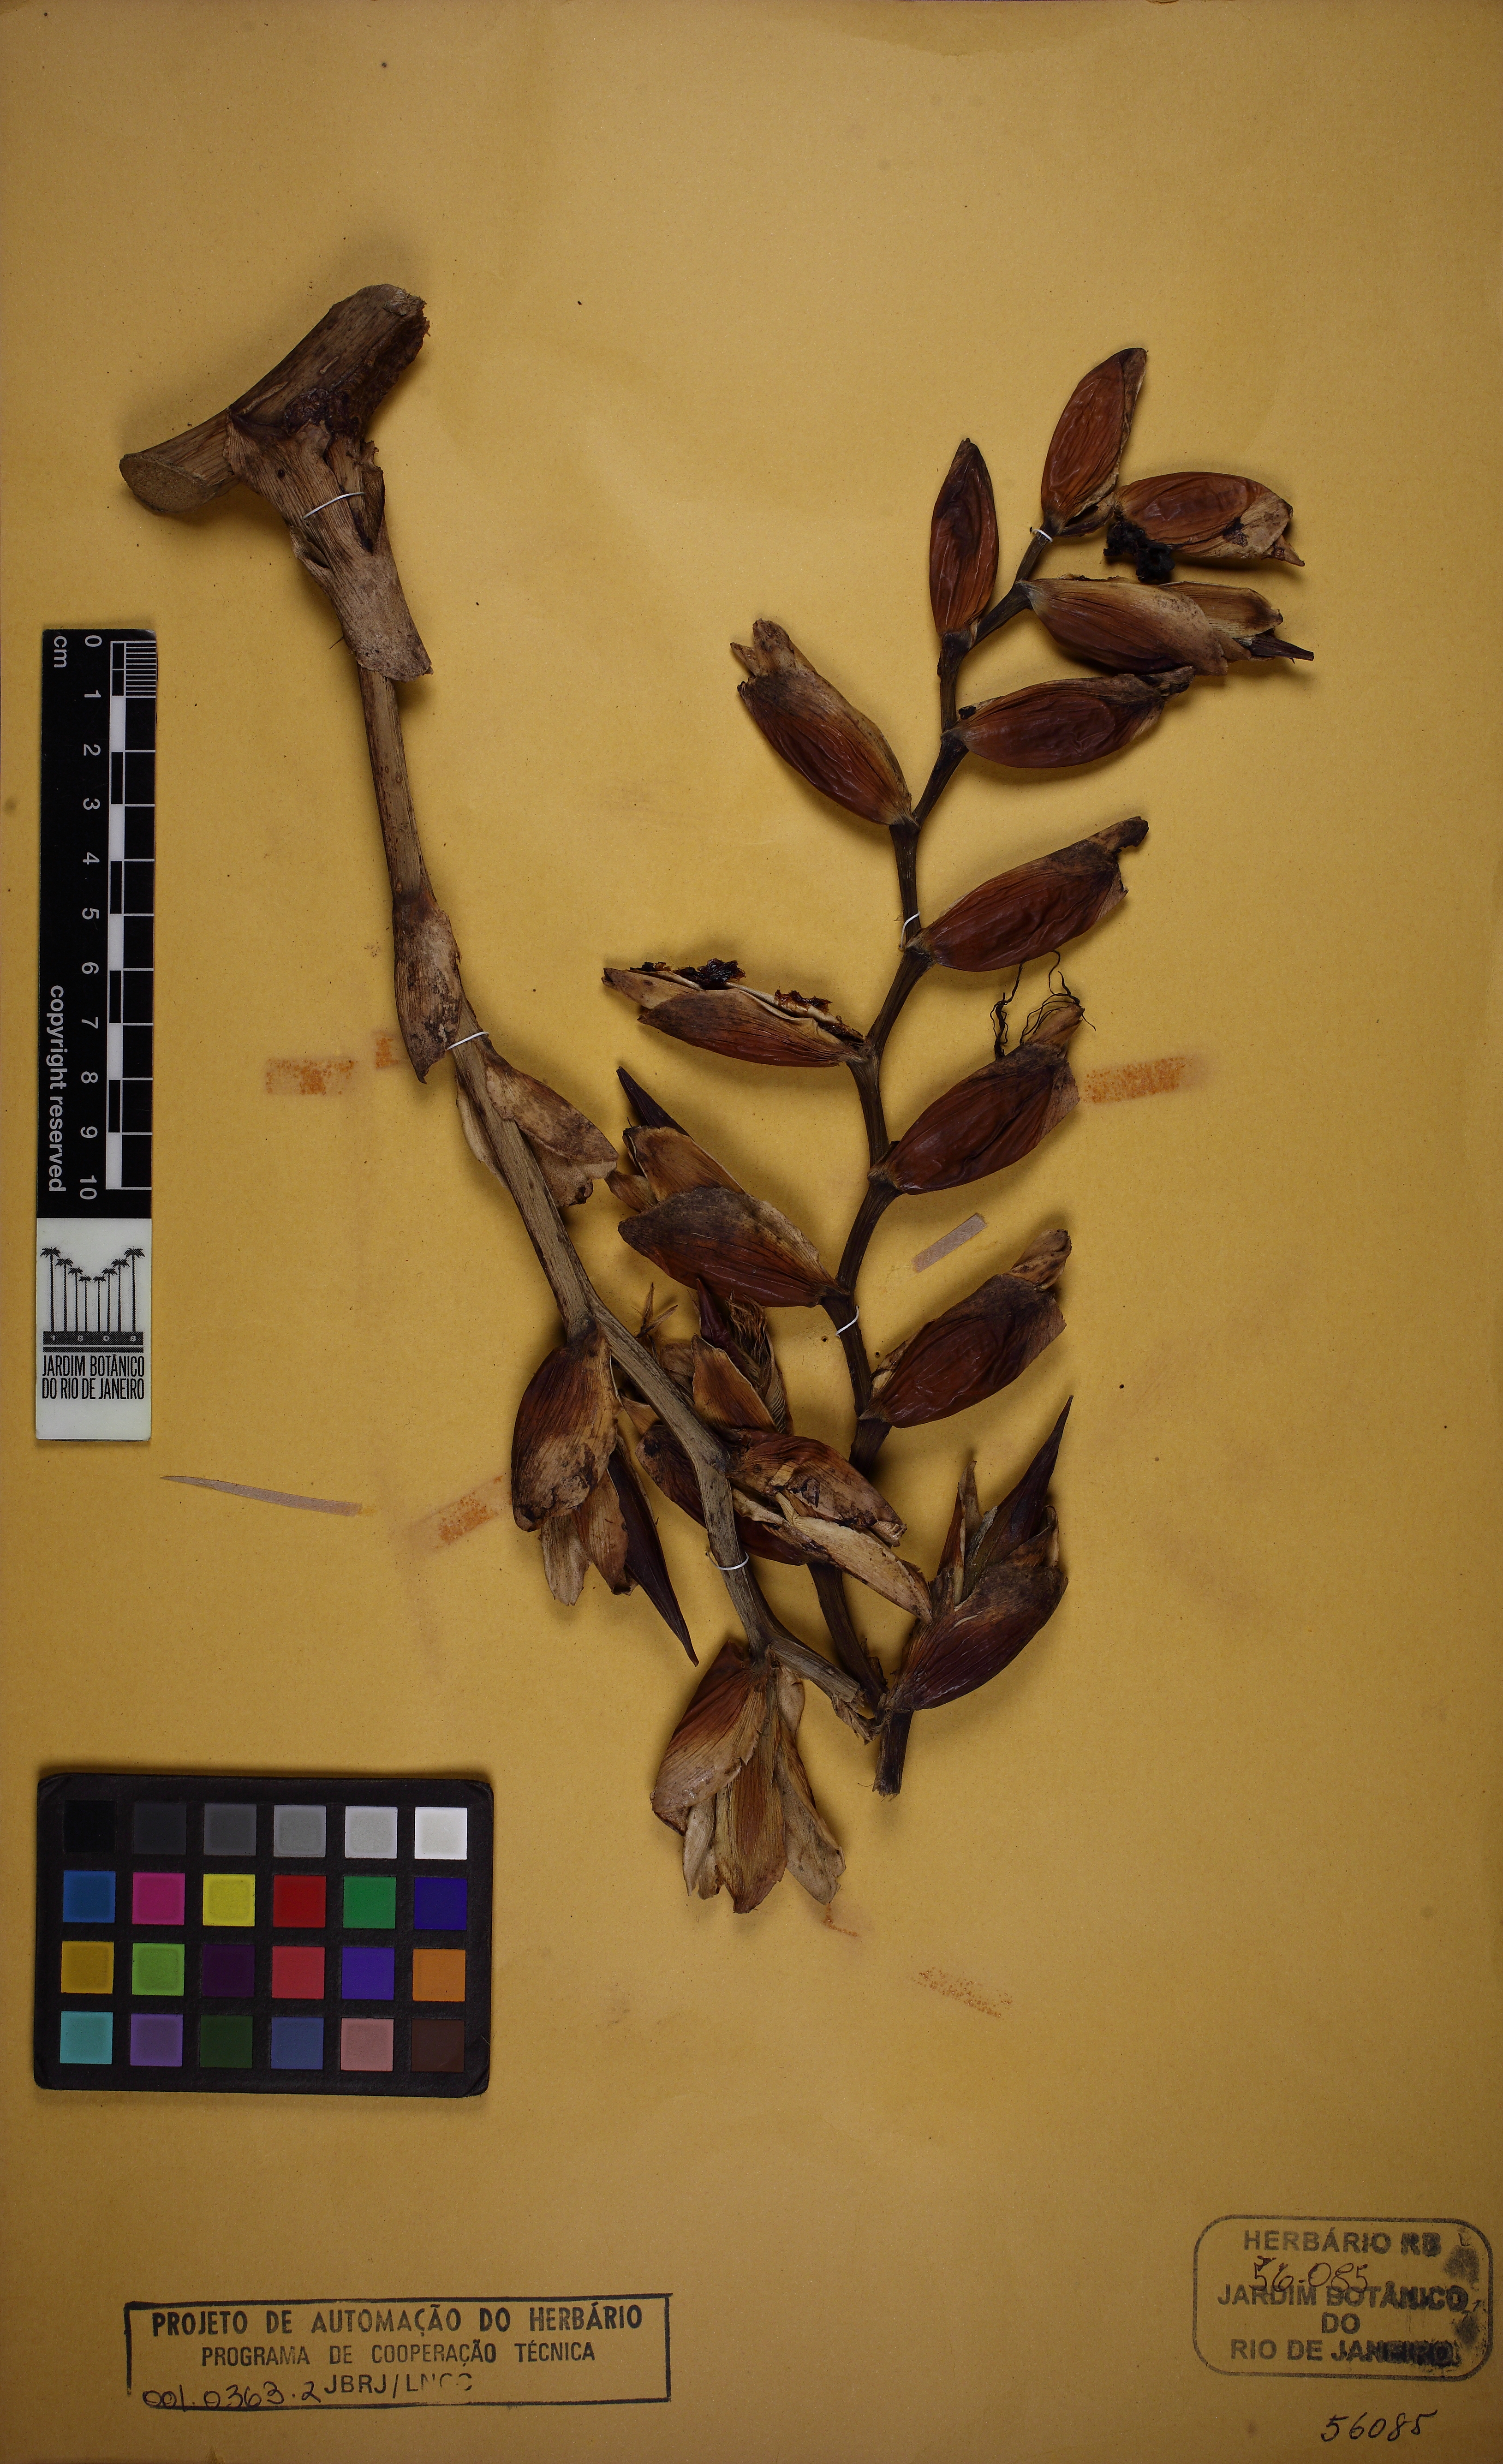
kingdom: Plantae
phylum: Tracheophyta
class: Liliopsida
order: Poales
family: Bromeliaceae
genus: Alcantarea
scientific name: Alcantarea extensa
